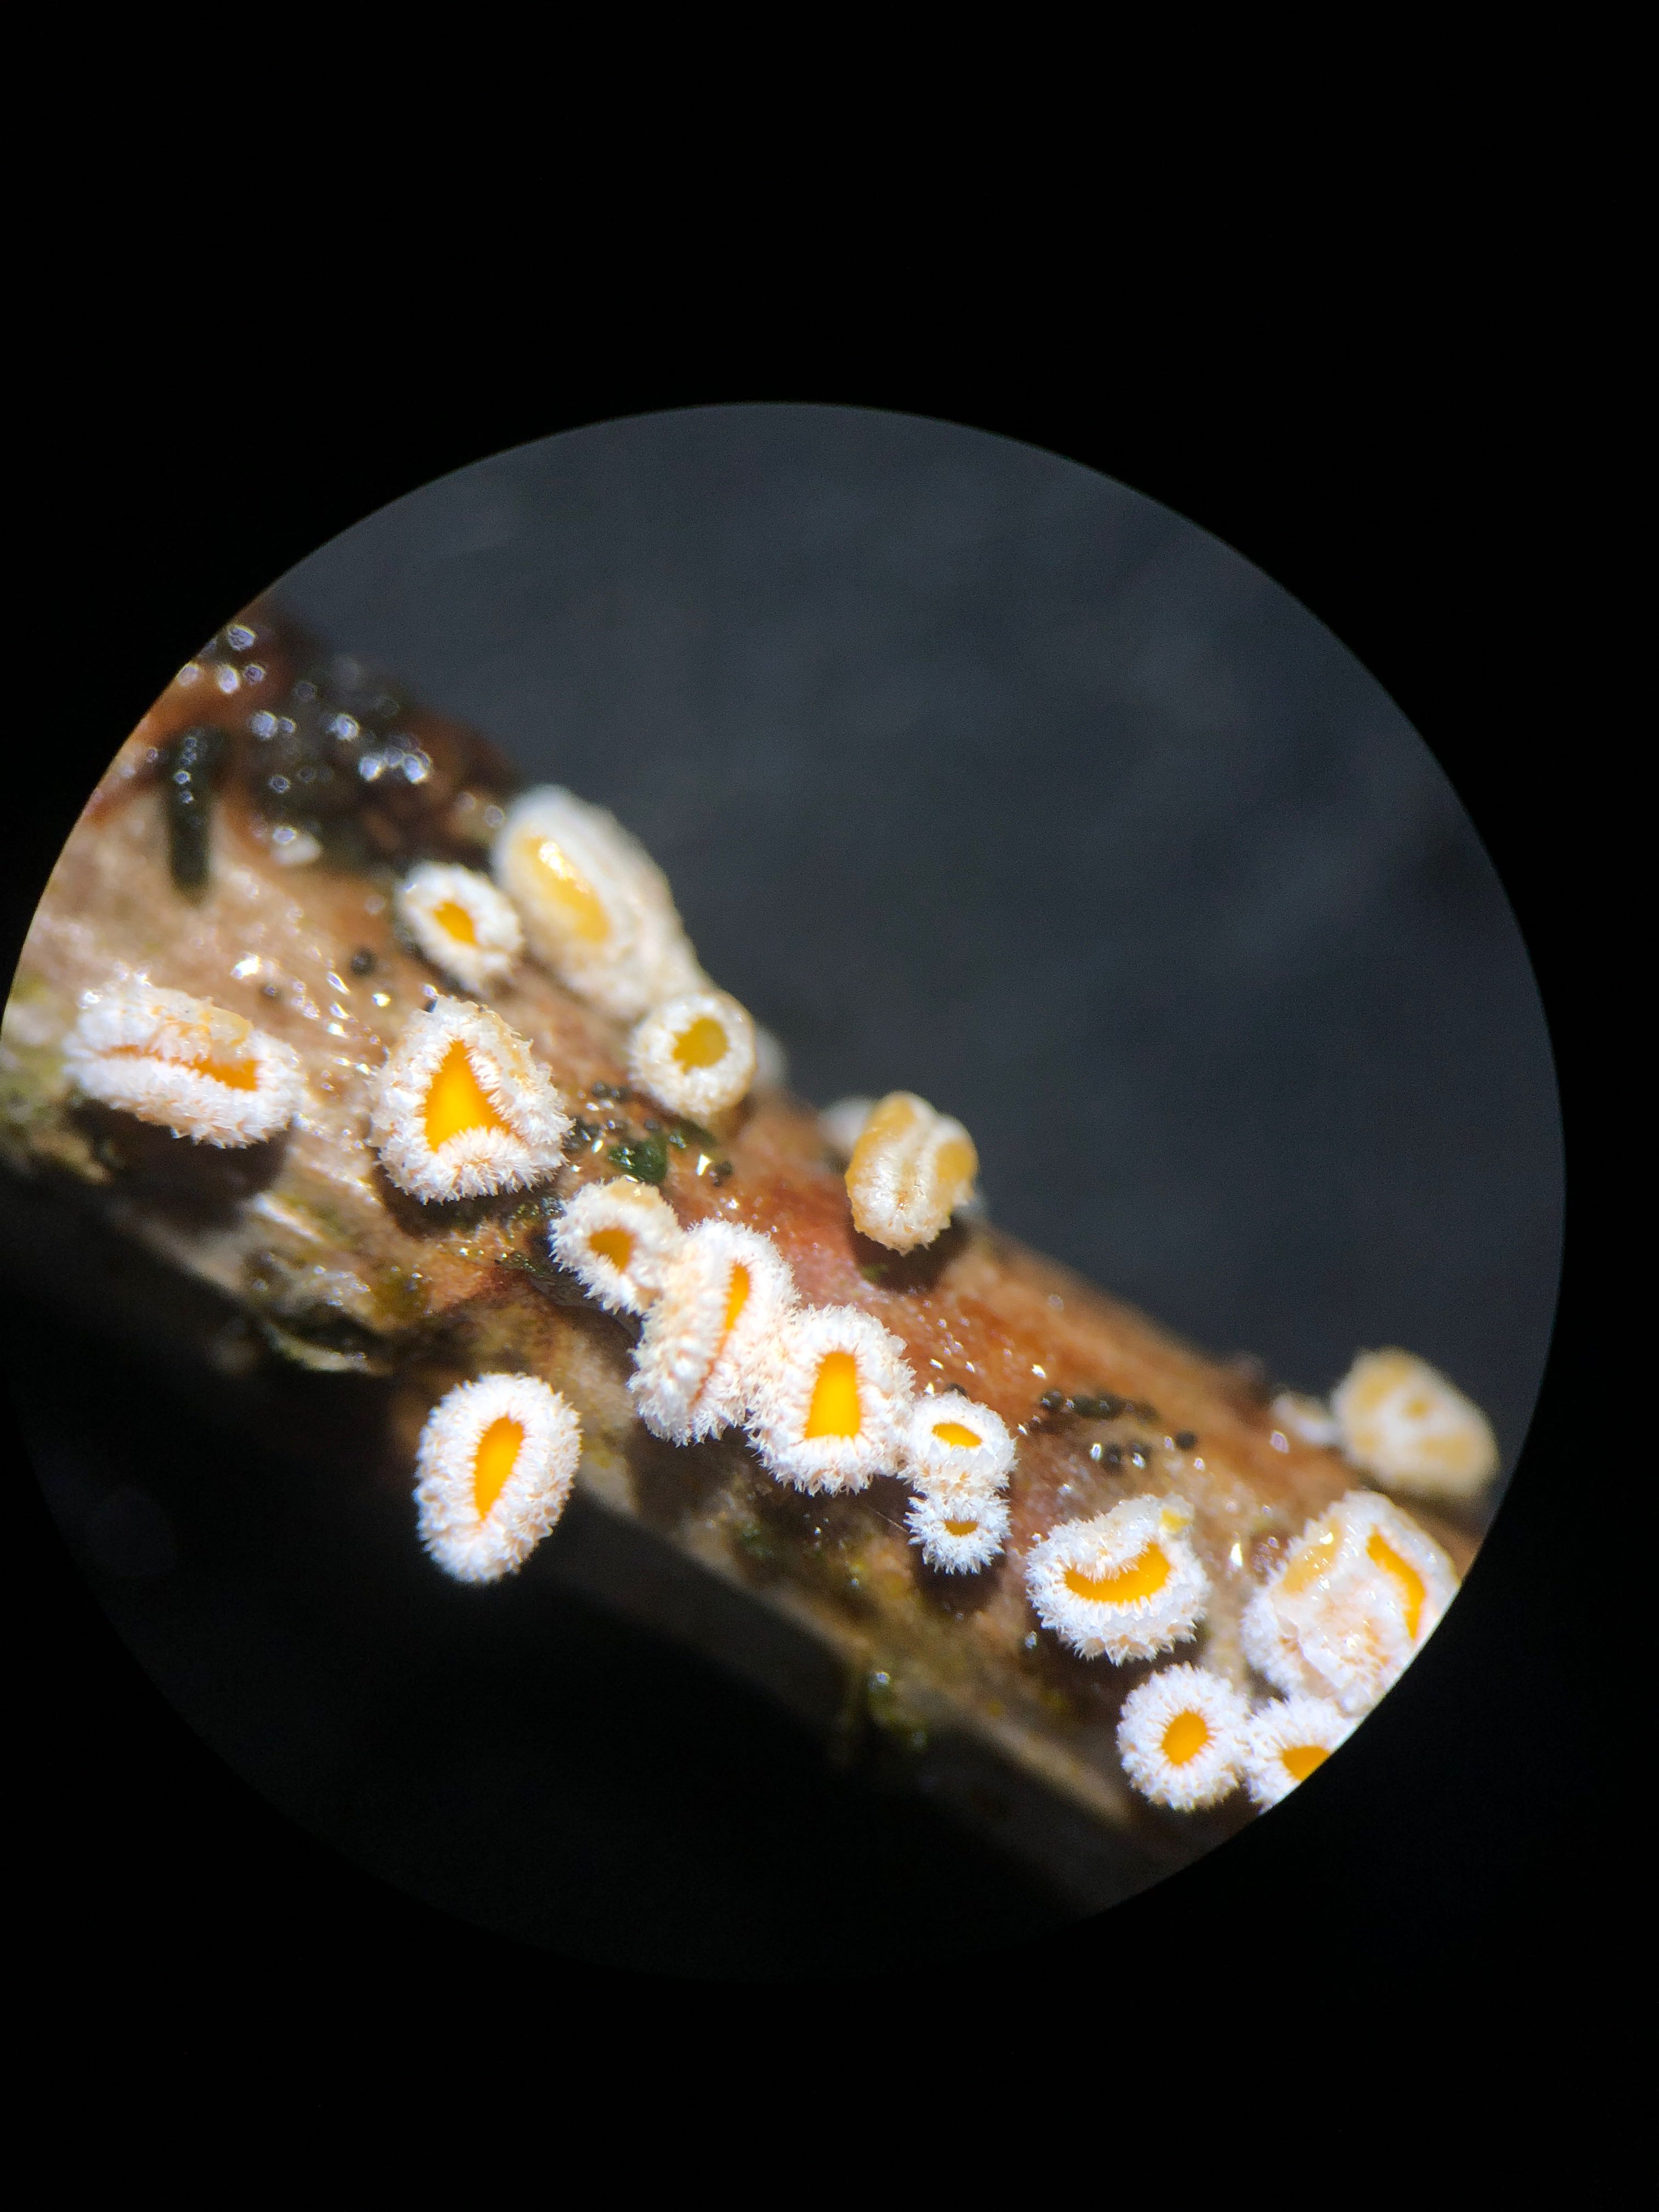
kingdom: Fungi
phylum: Ascomycota
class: Leotiomycetes
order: Helotiales
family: Lachnaceae
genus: Capitotricha
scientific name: Capitotricha bicolor
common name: prægtig frynseskive
